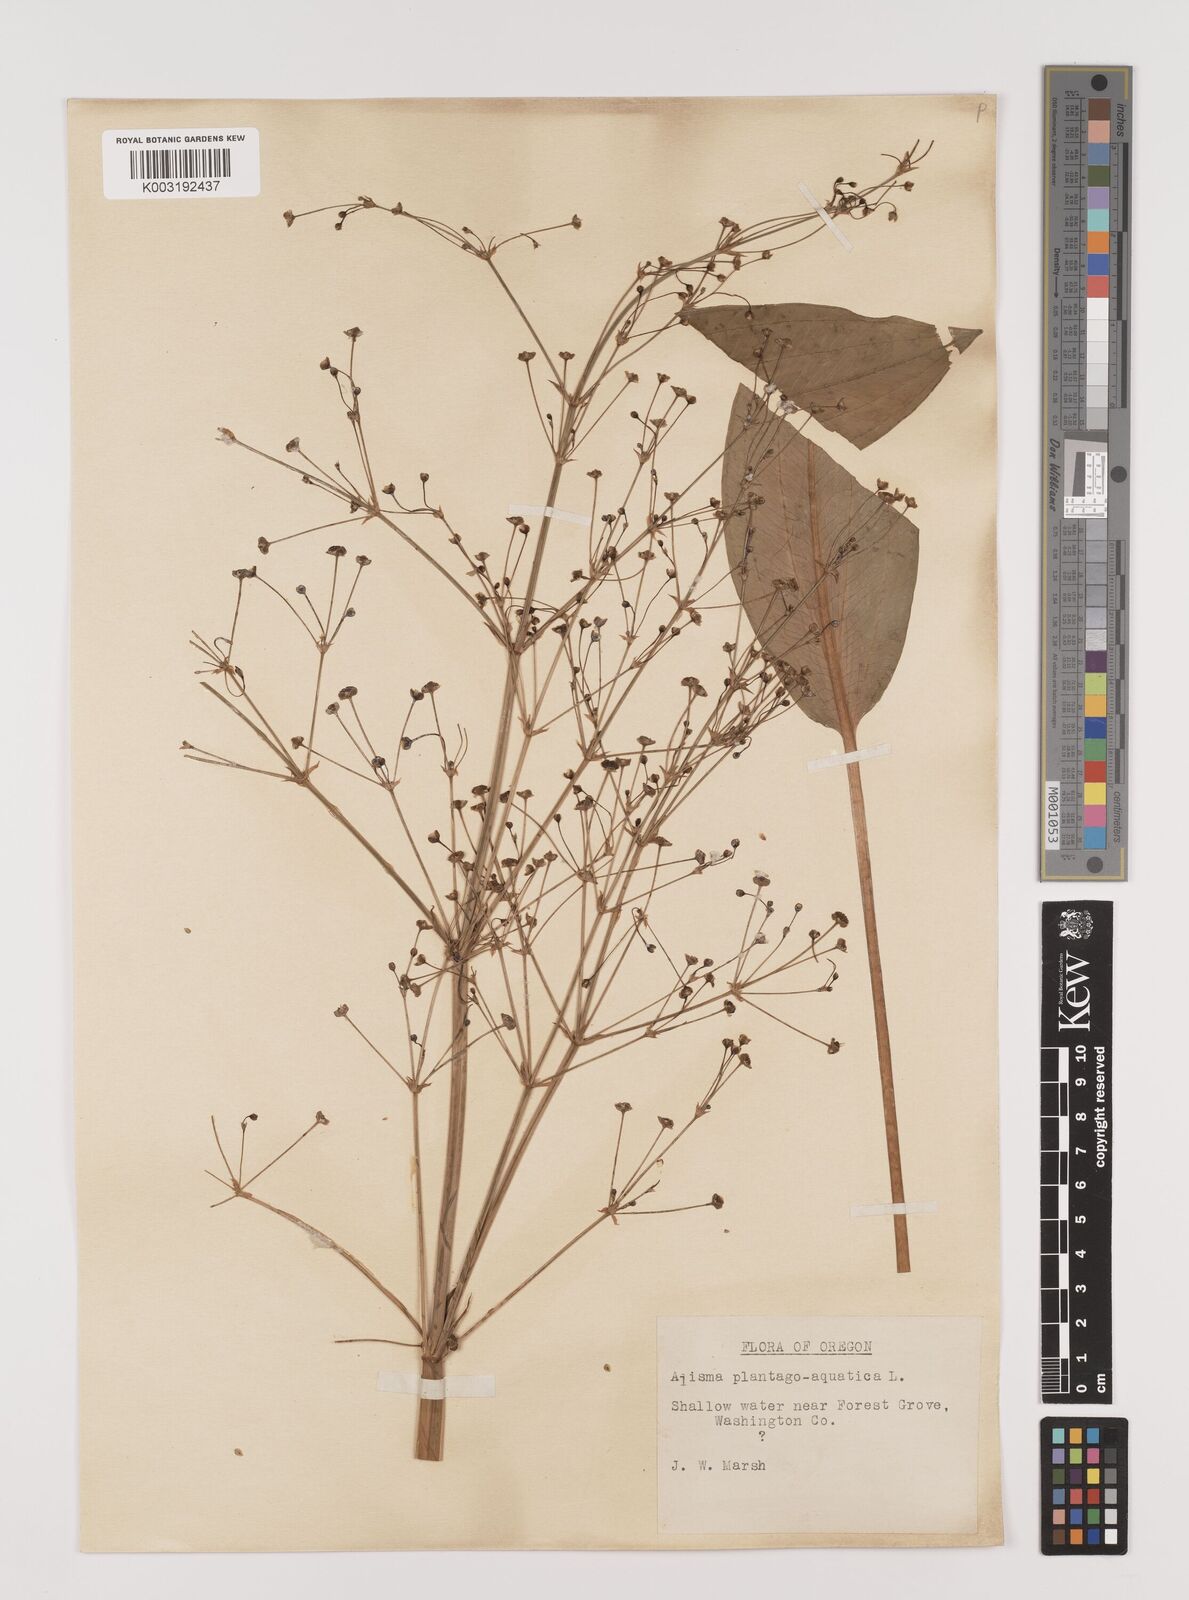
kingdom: Plantae
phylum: Tracheophyta
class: Liliopsida
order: Alismatales
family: Alismataceae
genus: Alisma
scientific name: Alisma triviale
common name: Northern water-plantain
